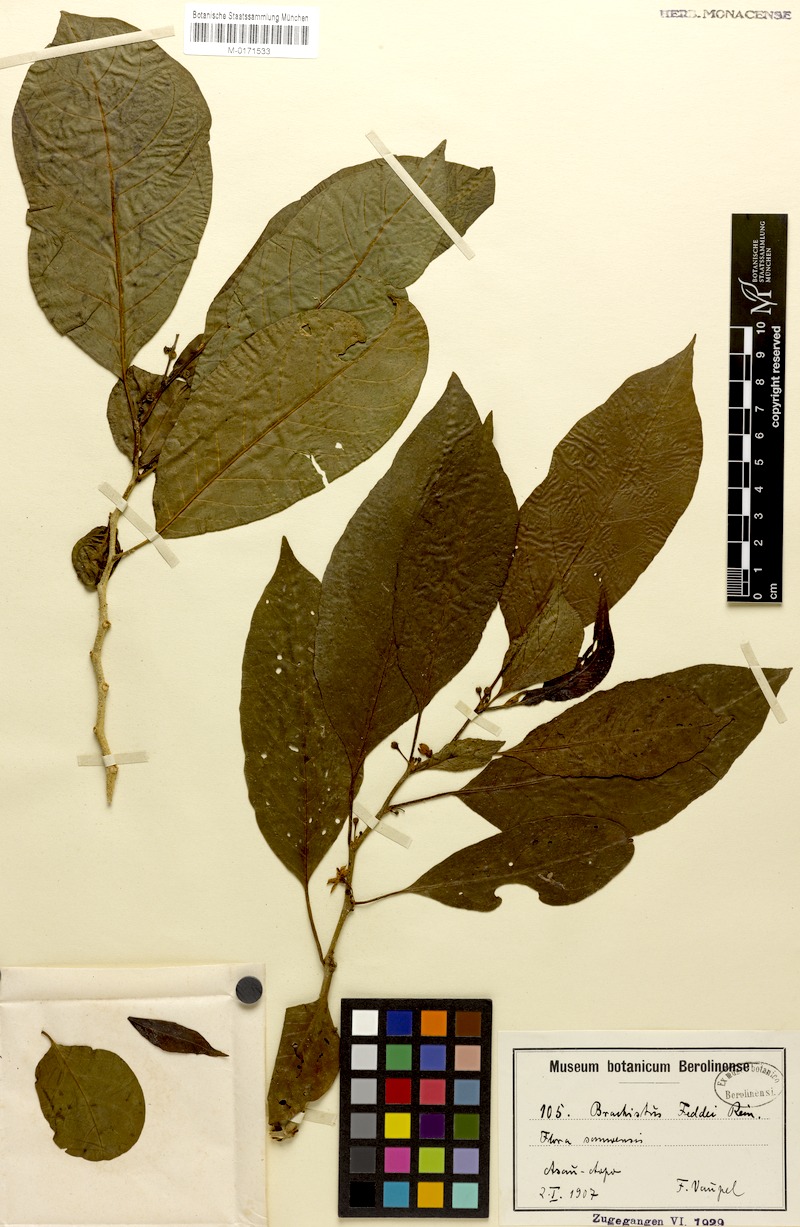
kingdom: Plantae
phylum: Tracheophyta
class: Magnoliopsida
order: Solanales
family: Solanaceae
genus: Lycianthes
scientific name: Lycianthes vitiensis
